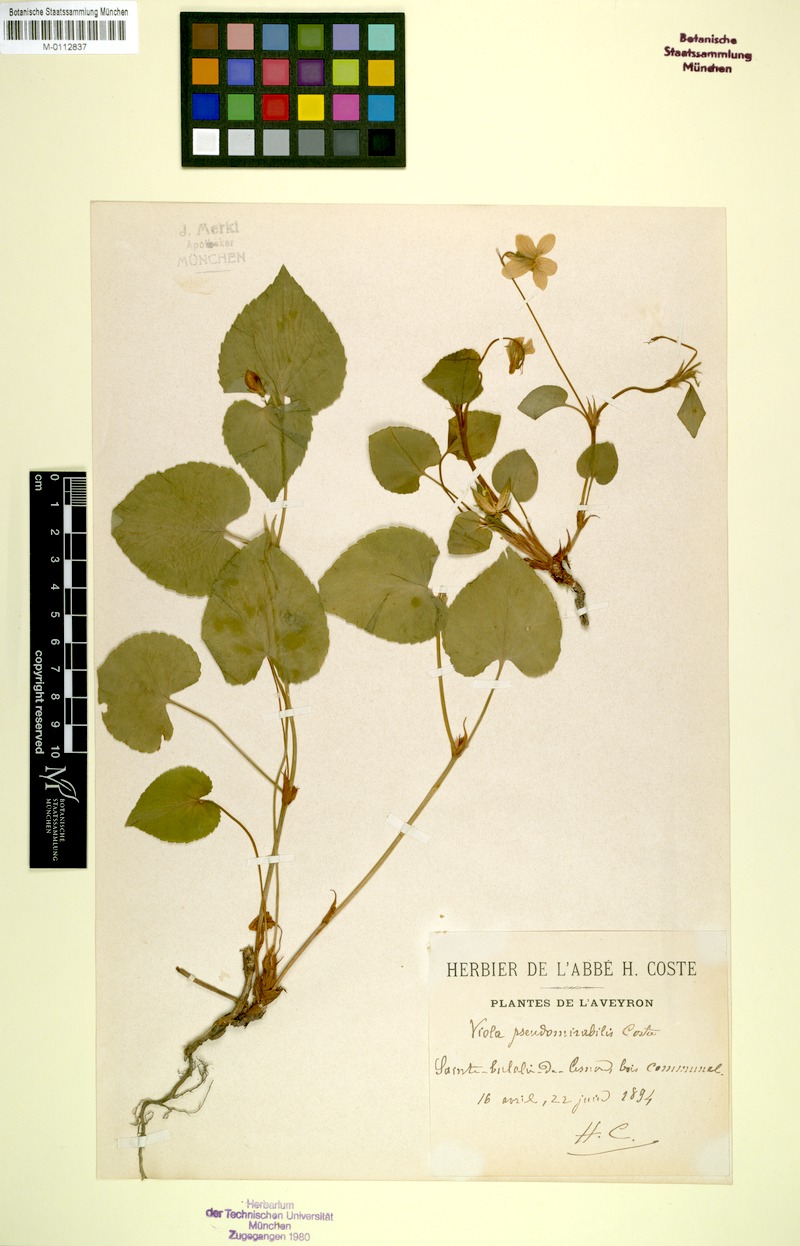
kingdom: Plantae
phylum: Tracheophyta
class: Magnoliopsida
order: Malpighiales
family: Violaceae
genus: Viola
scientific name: Viola orophila
